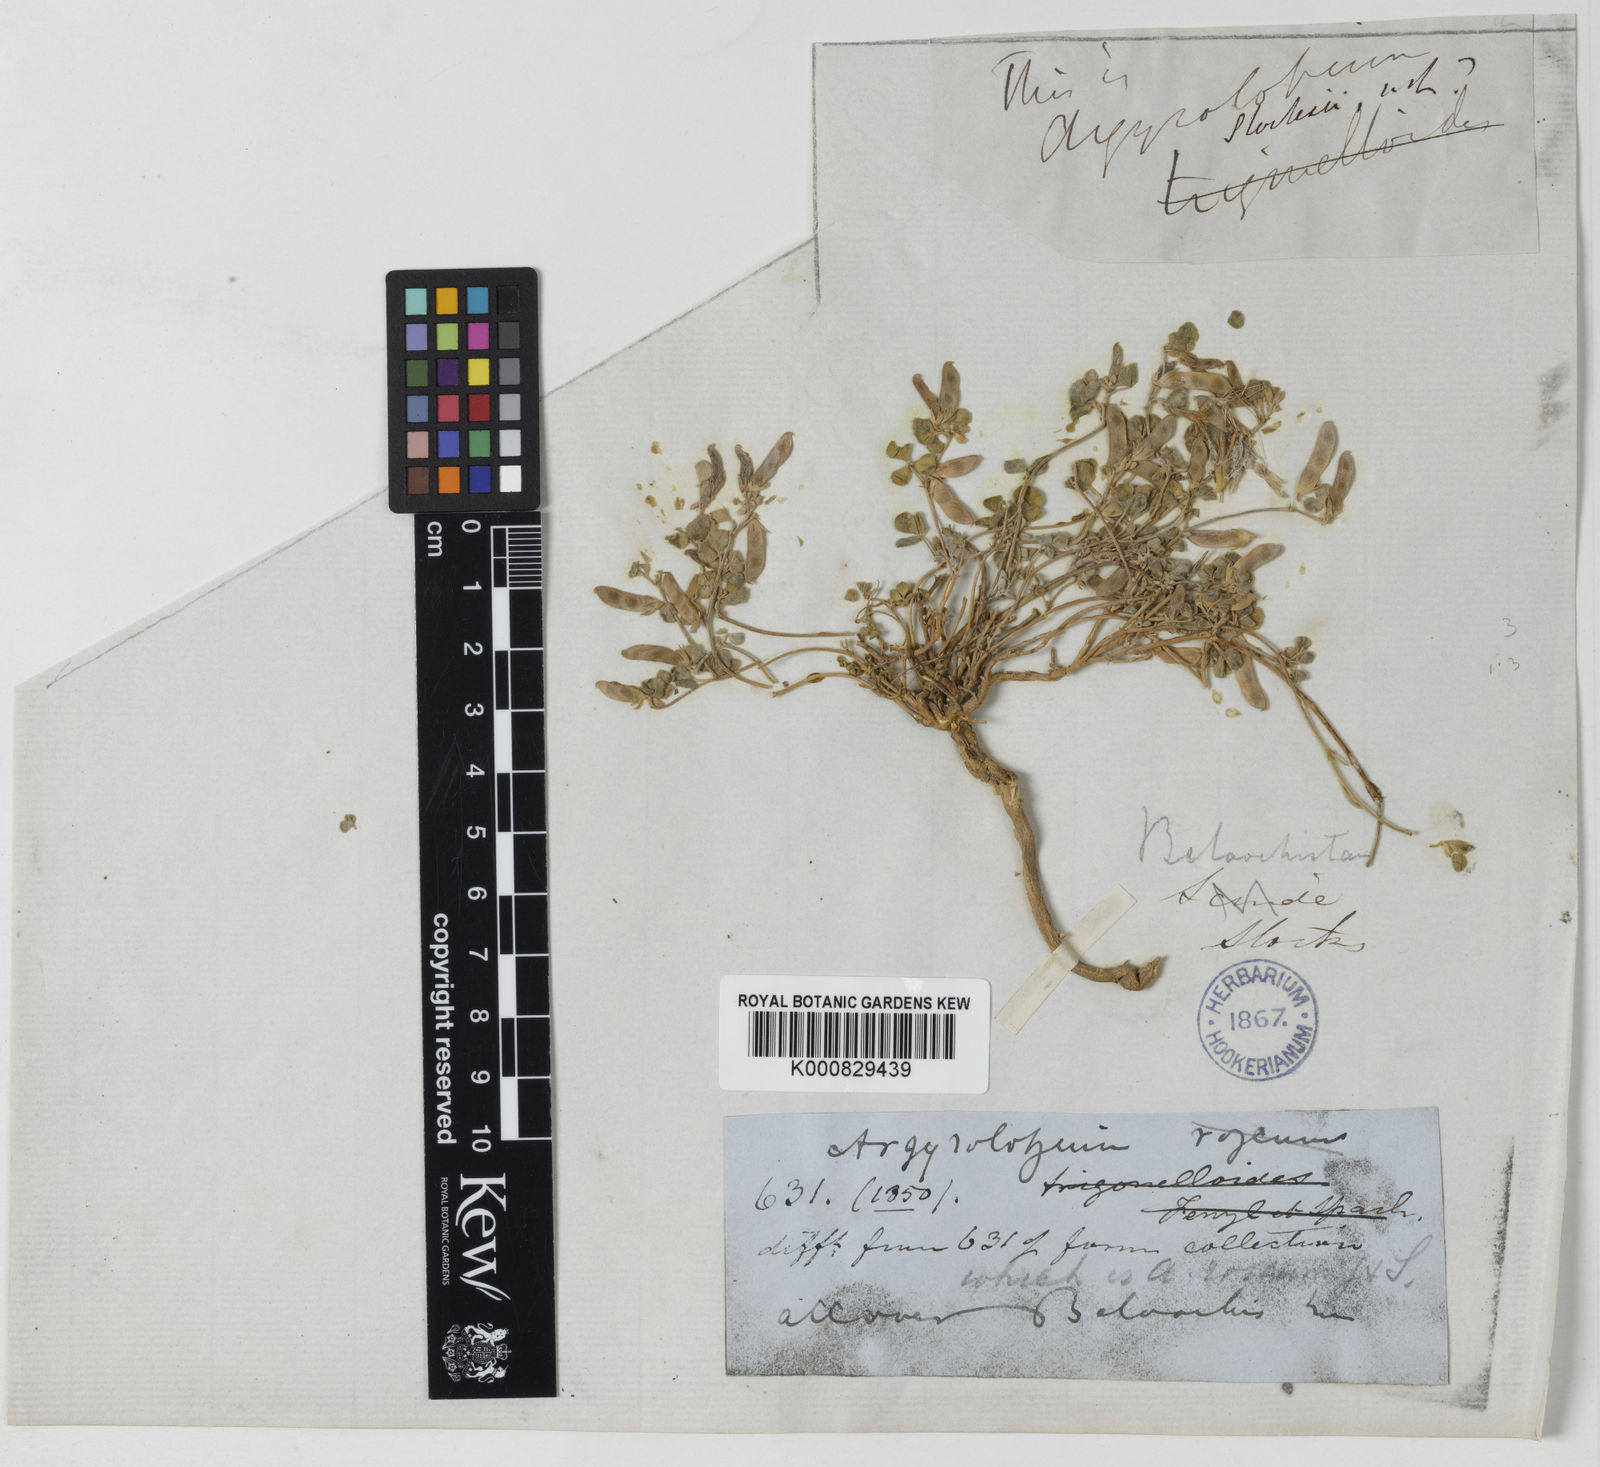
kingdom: Plantae
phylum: Tracheophyta
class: Magnoliopsida
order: Fabales
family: Fabaceae
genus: Argyrolobium
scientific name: Argyrolobium
